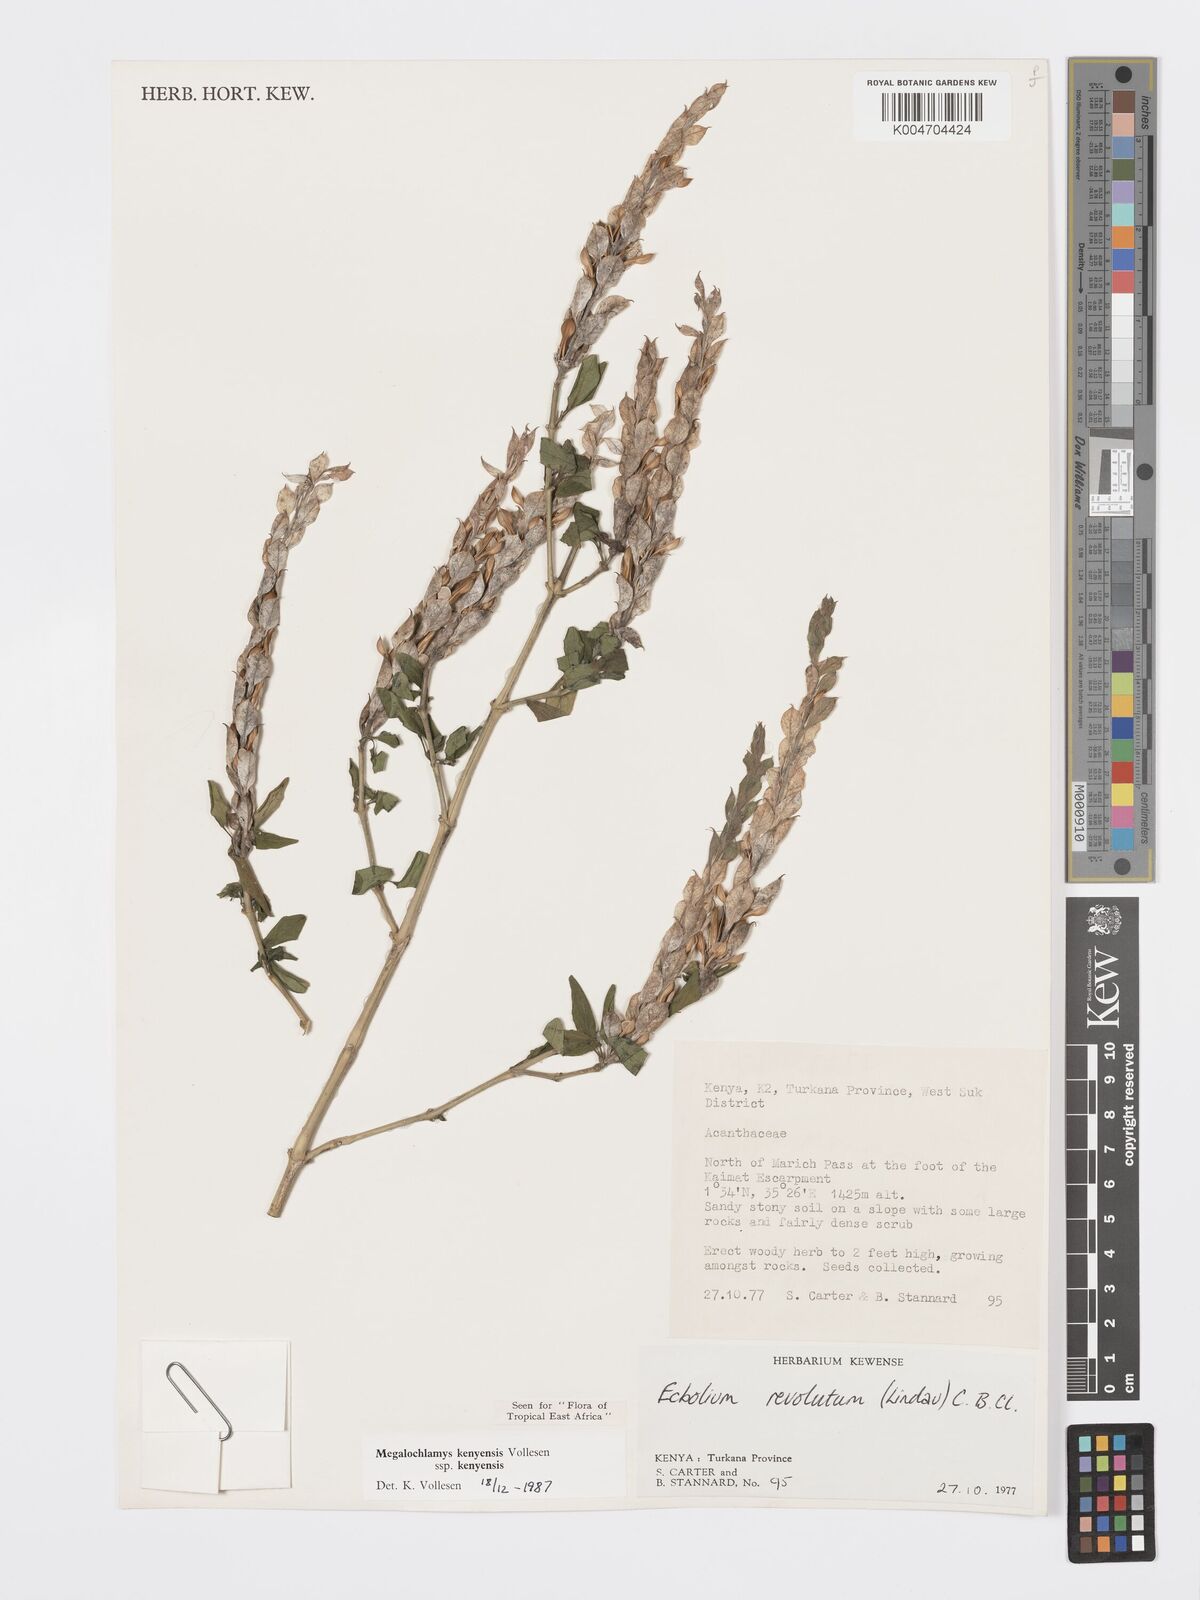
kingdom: Plantae
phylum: Tracheophyta
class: Magnoliopsida
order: Lamiales
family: Acanthaceae
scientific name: Acanthaceae
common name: Acanthaceae
